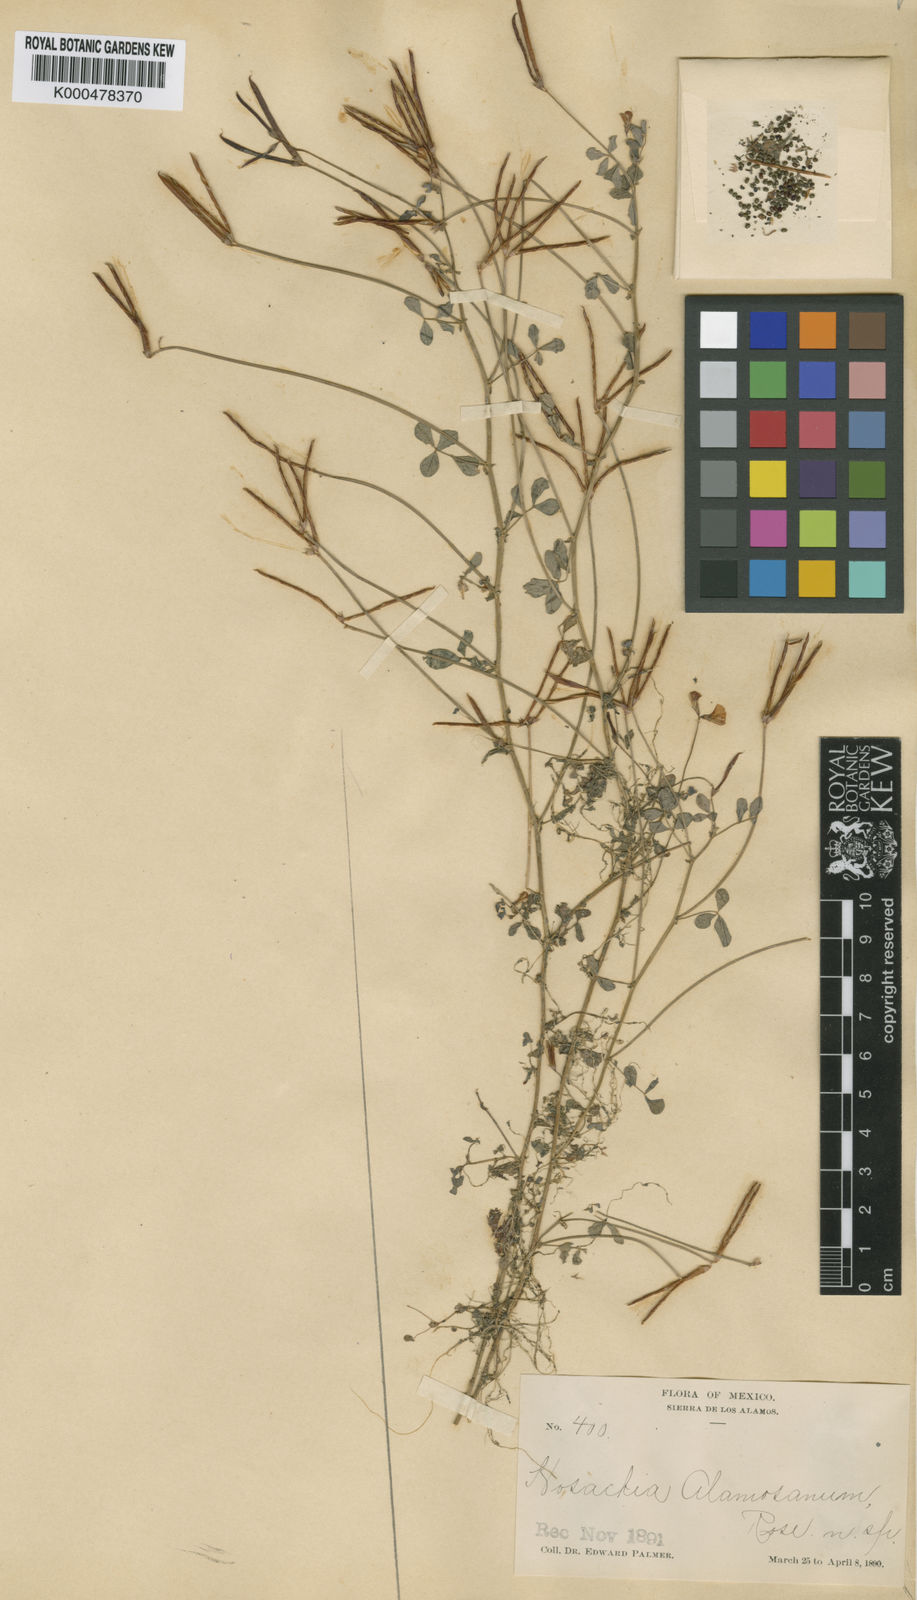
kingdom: Plantae
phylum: Tracheophyta
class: Magnoliopsida
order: Fabales
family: Fabaceae
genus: Acmispon
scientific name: Acmispon watsonii
